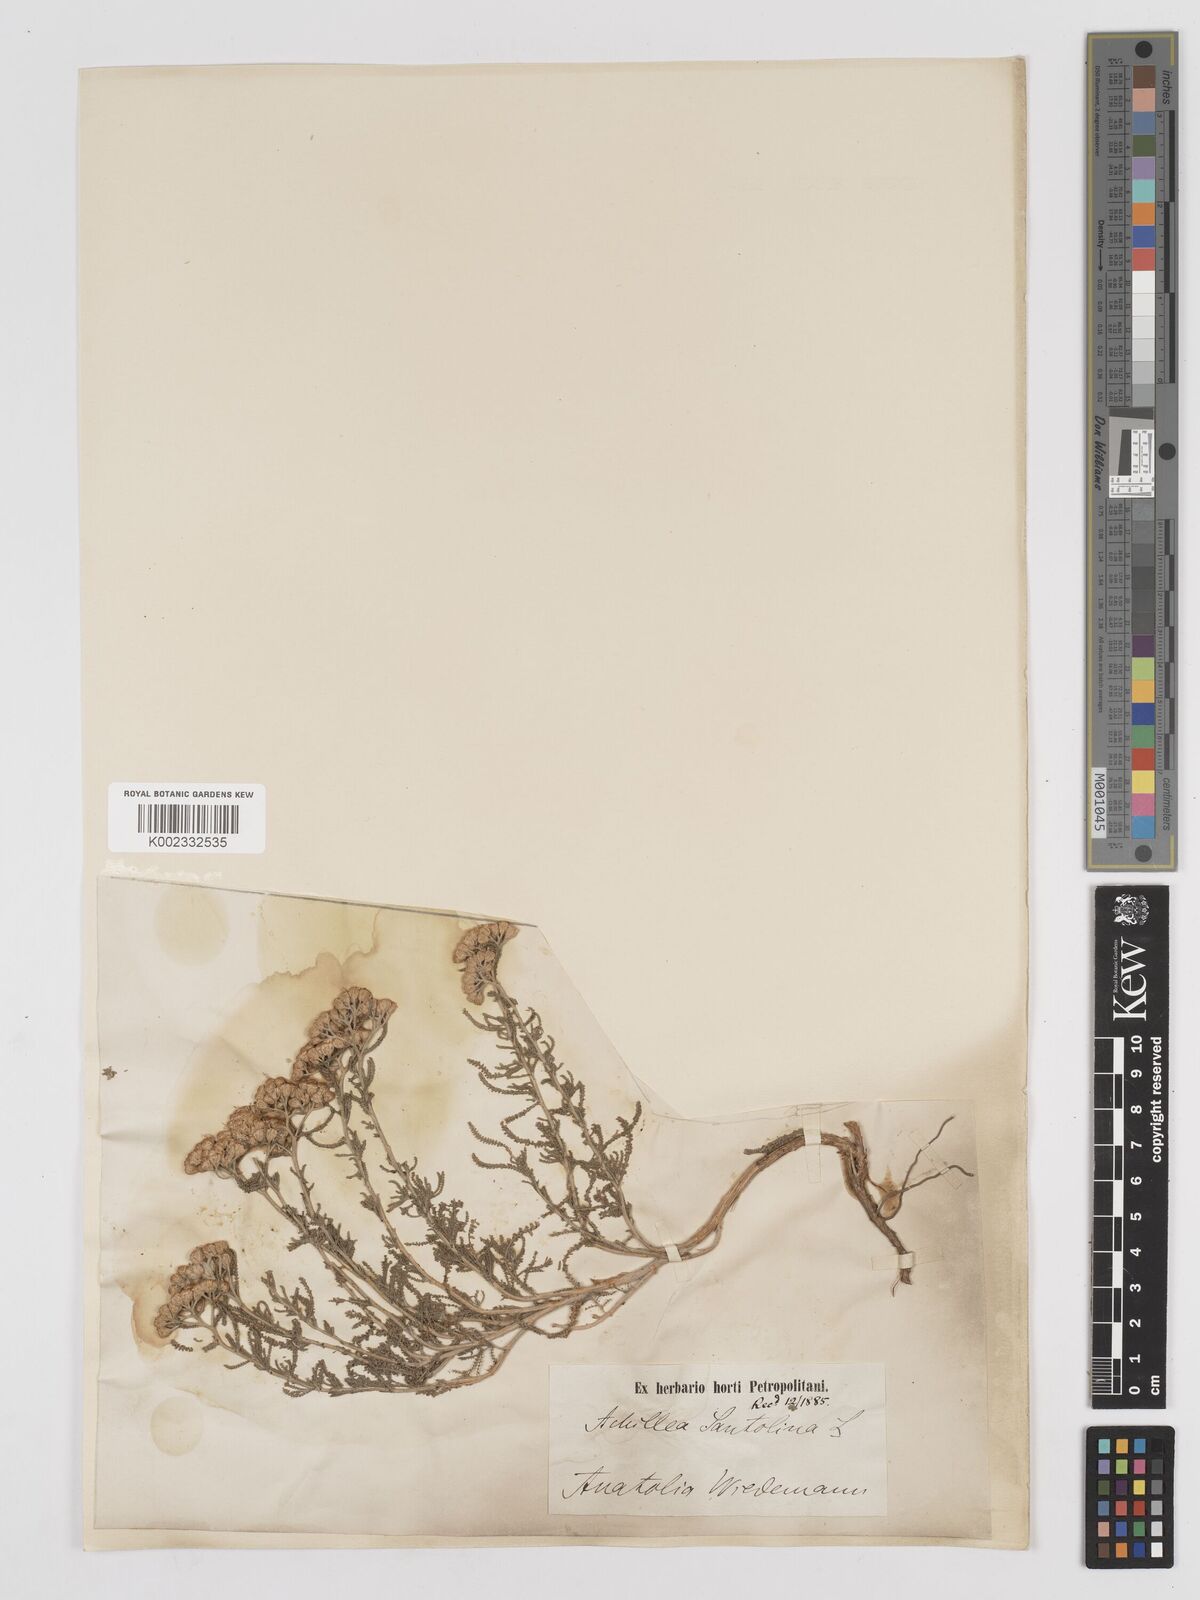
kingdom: Plantae
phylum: Tracheophyta
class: Magnoliopsida
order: Asterales
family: Asteraceae
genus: Achillea
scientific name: Achillea tenuifolia
